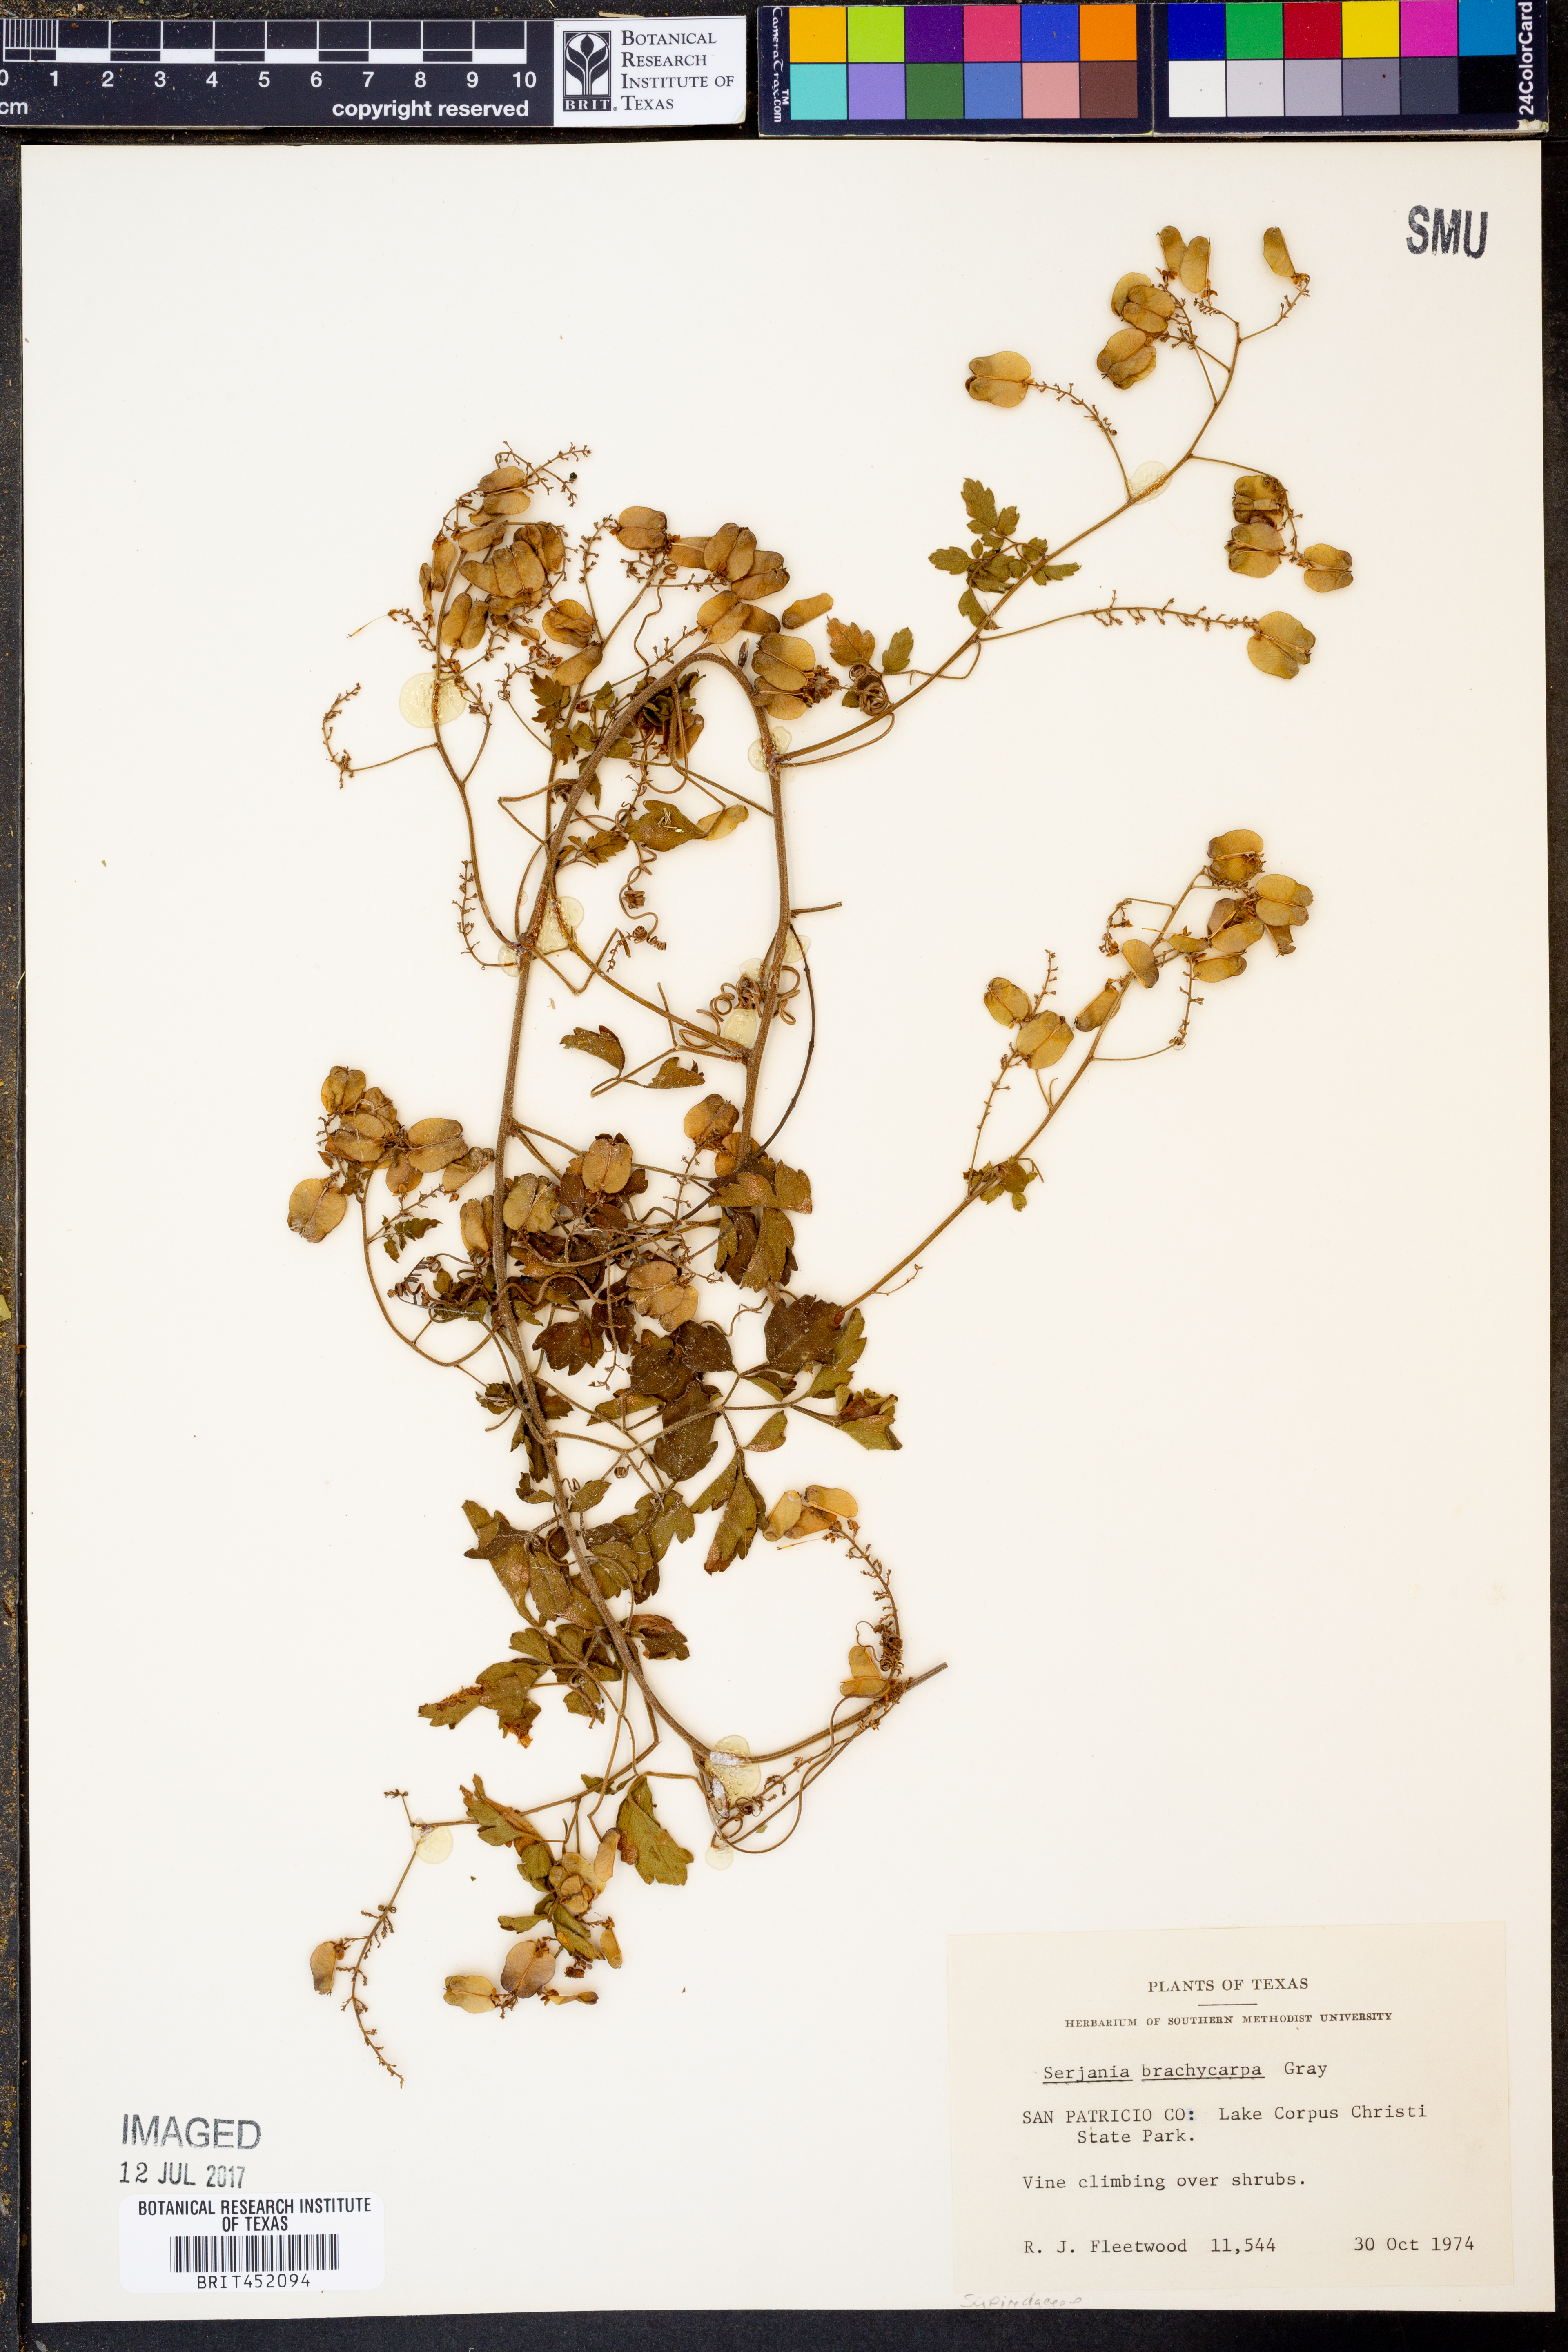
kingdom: Plantae
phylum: Tracheophyta
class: Magnoliopsida
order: Sapindales
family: Sapindaceae
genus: Serjania
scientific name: Serjania brachycarpa
